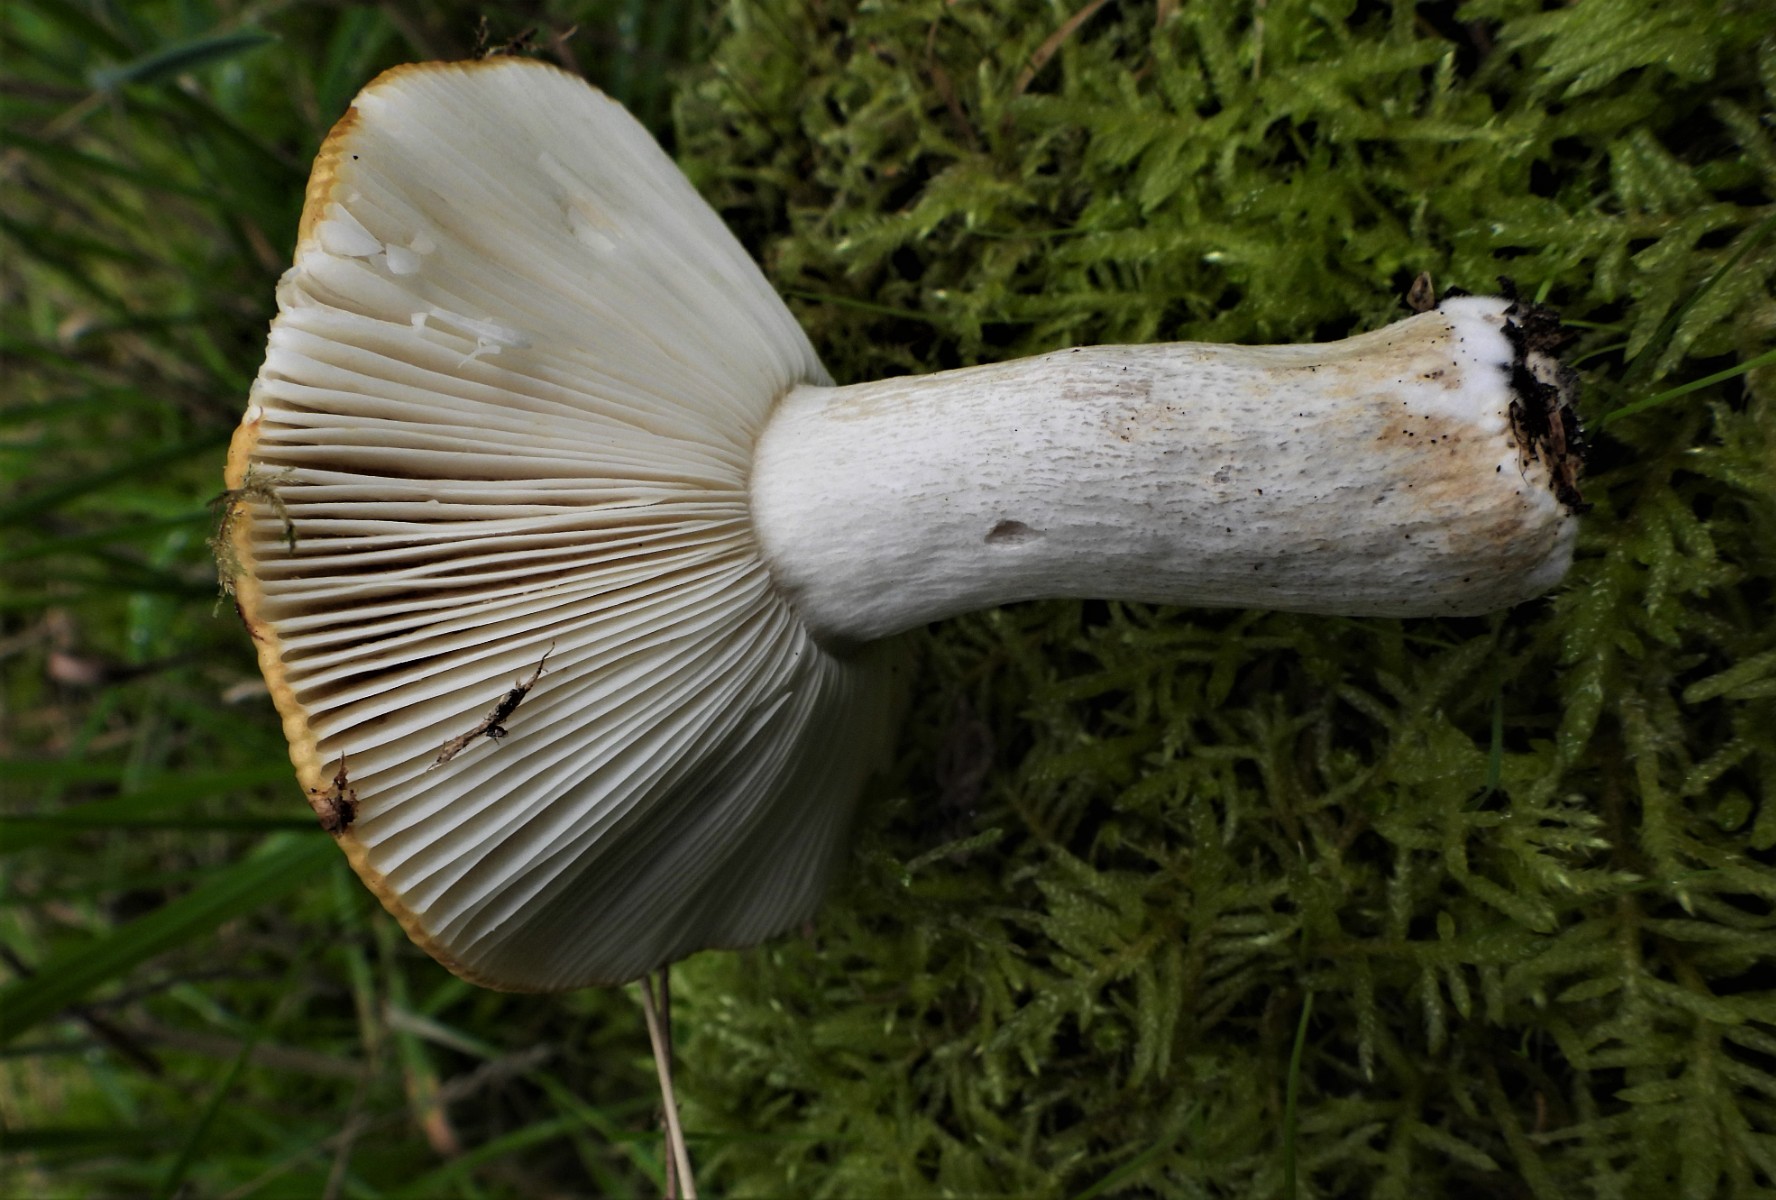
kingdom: Fungi
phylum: Basidiomycota
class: Agaricomycetes
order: Russulales
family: Russulaceae
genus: Russula
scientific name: Russula ochroleuca
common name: okkergul skørhat
